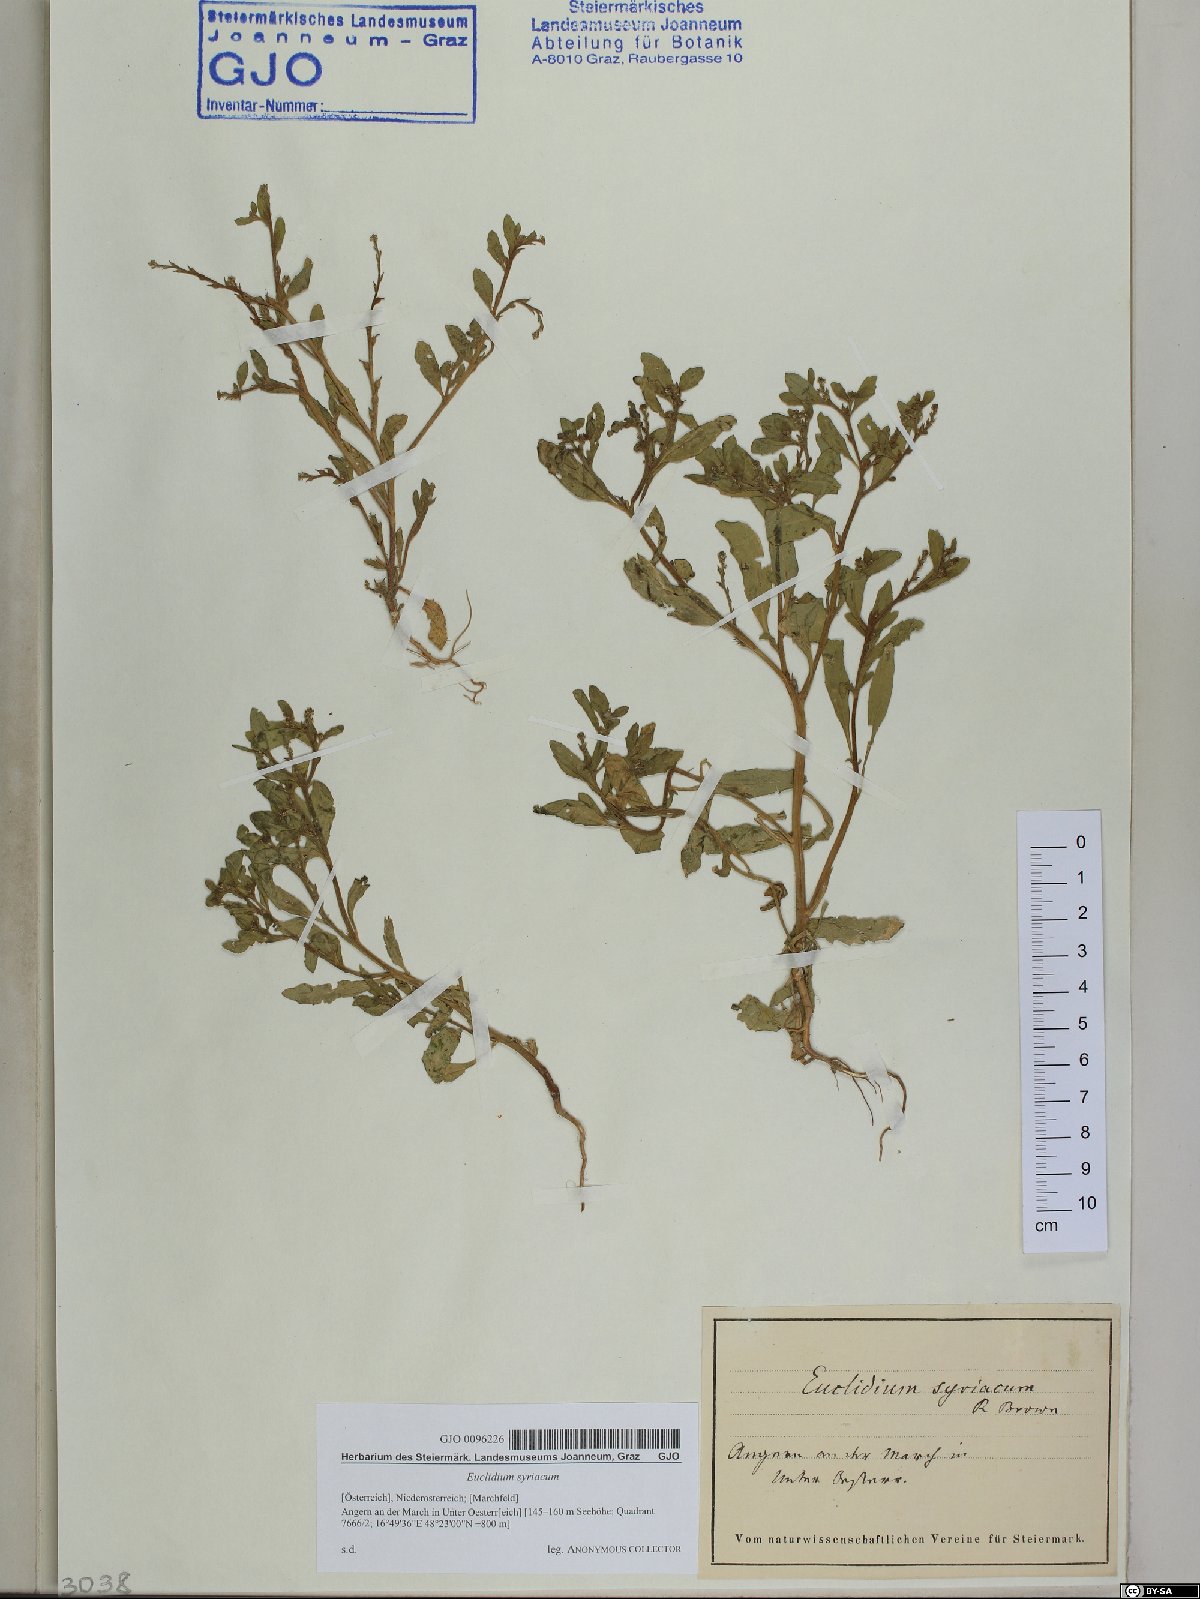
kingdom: Plantae
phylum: Tracheophyta
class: Magnoliopsida
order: Brassicales
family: Brassicaceae
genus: Euclidium
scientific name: Euclidium syriacum
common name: Syrian mustard
